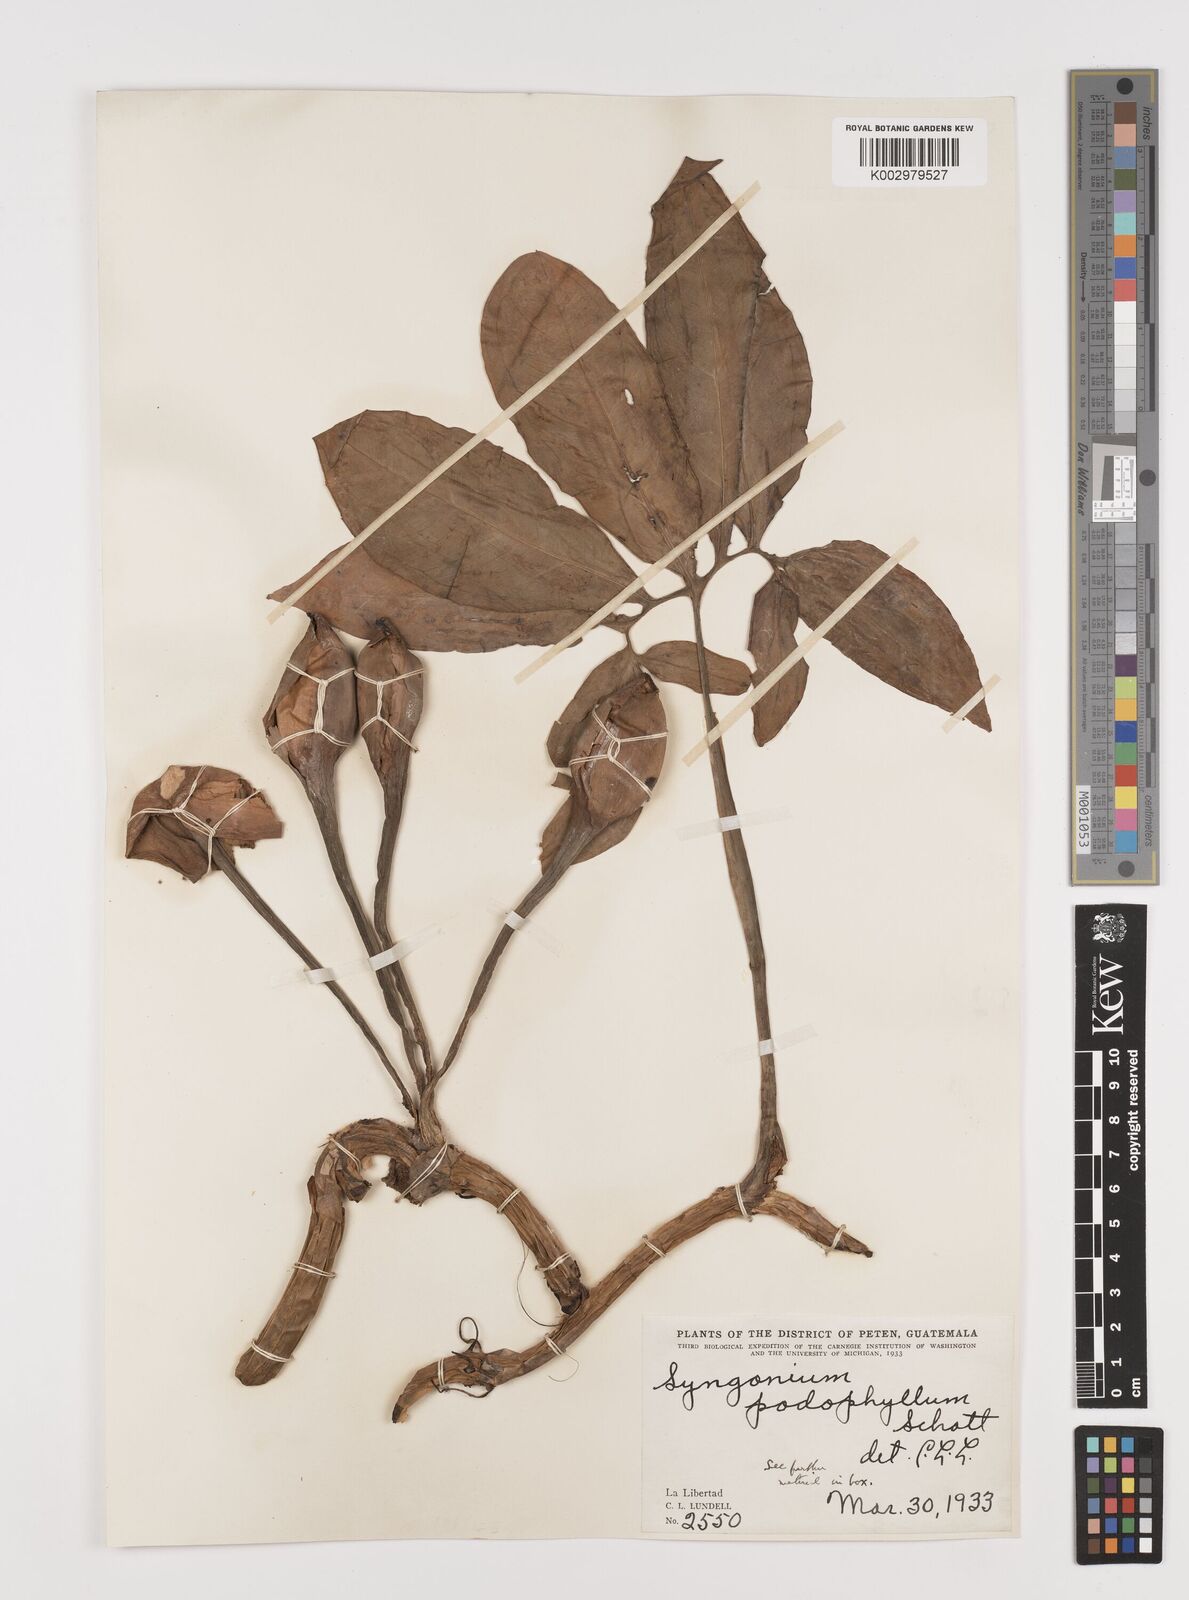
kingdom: Plantae
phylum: Tracheophyta
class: Liliopsida
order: Alismatales
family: Araceae
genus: Syngonium
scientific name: Syngonium podophyllum
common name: American evergreen
